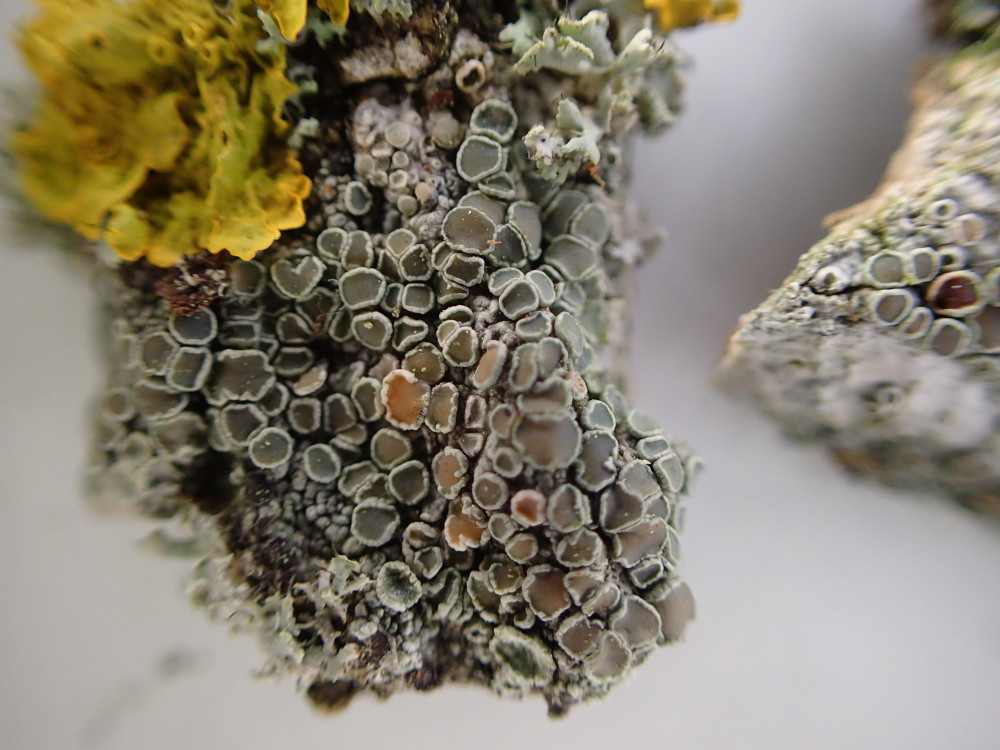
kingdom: Fungi
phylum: Ascomycota
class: Lecanoromycetes
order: Lecanorales
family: Lecanoraceae
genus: Lecanora
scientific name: Lecanora chlarotera
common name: brun kantskivelav
